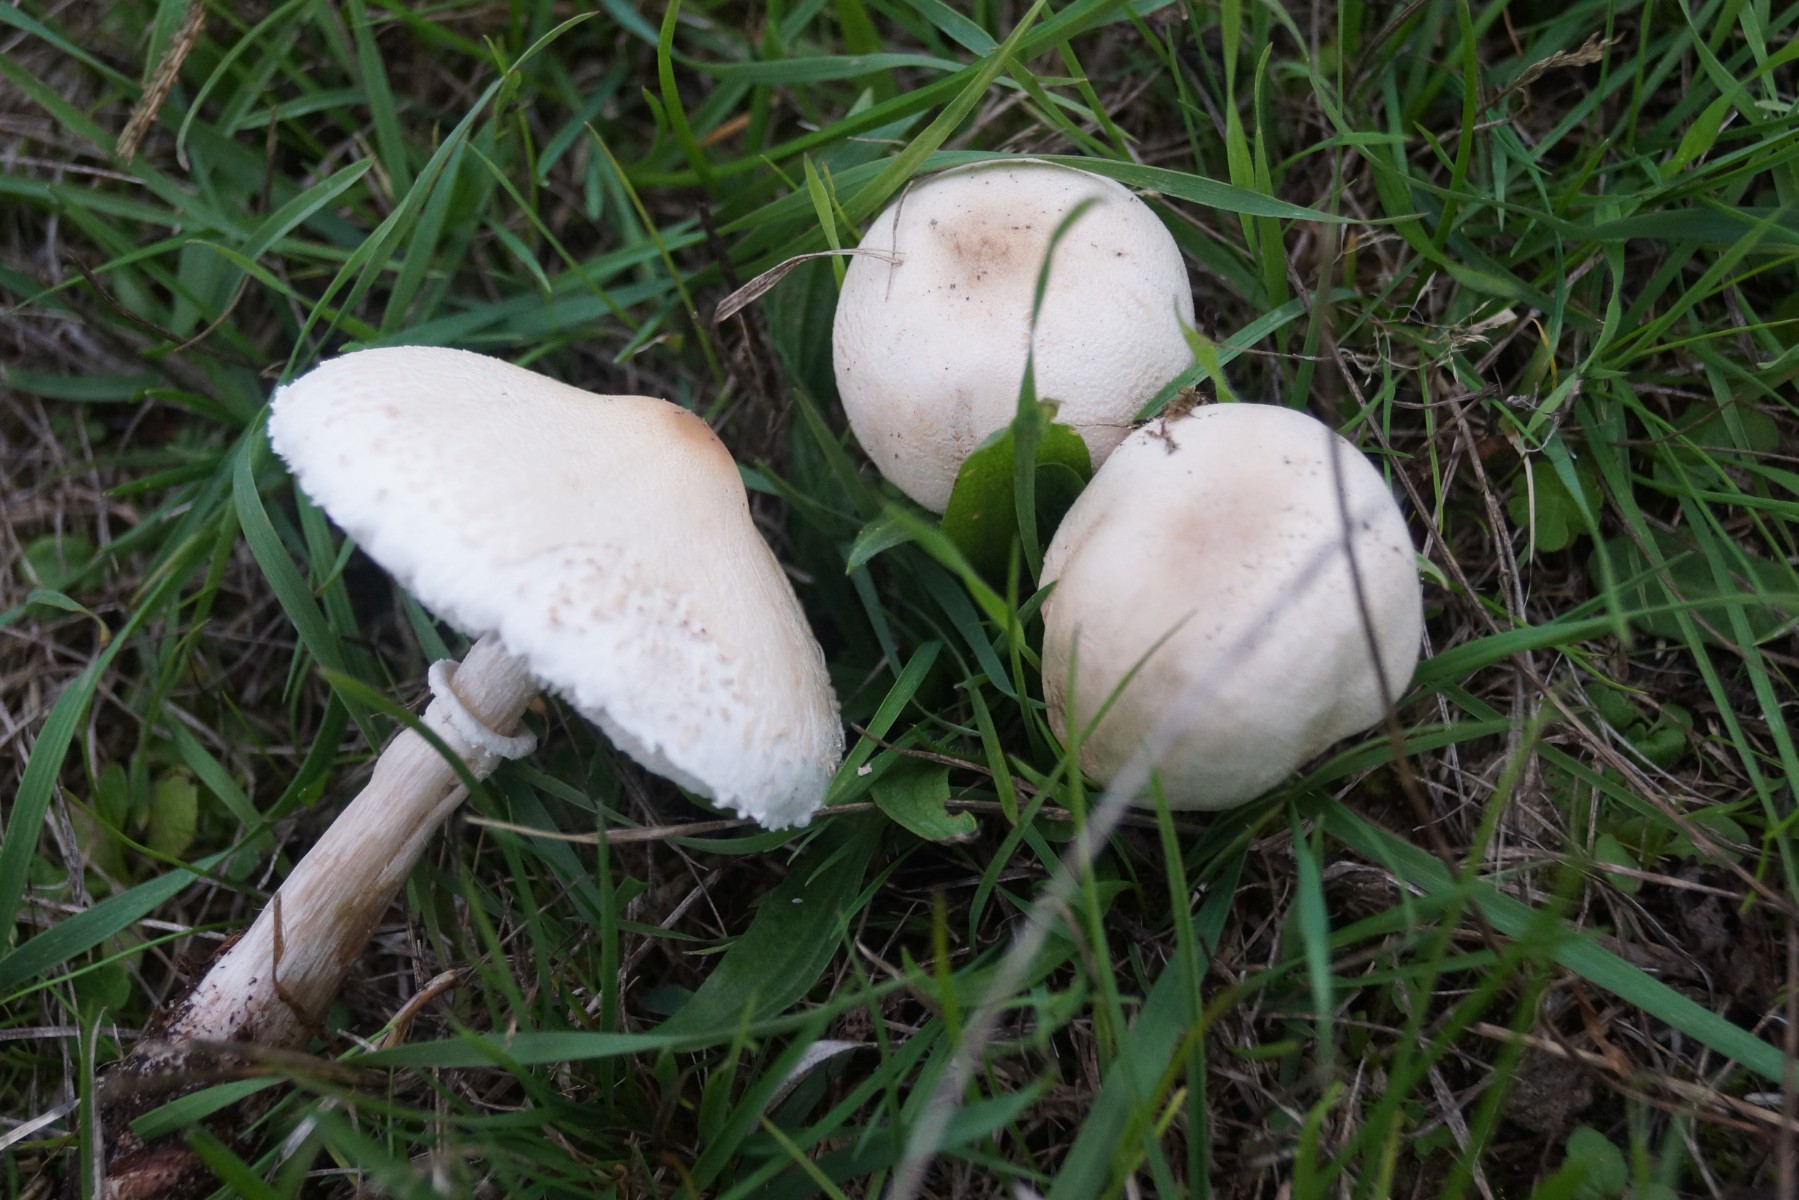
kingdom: Fungi
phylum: Basidiomycota
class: Agaricomycetes
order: Agaricales
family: Agaricaceae
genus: Macrolepiota
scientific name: Macrolepiota excoriata
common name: mark-kæmpeparasolhat
